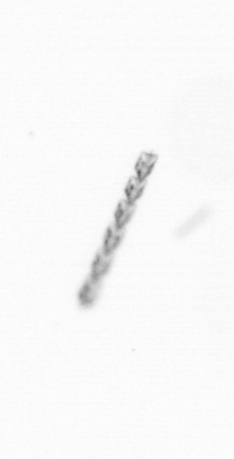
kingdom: Chromista
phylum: Ochrophyta
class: Bacillariophyceae
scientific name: Bacillariophyceae
